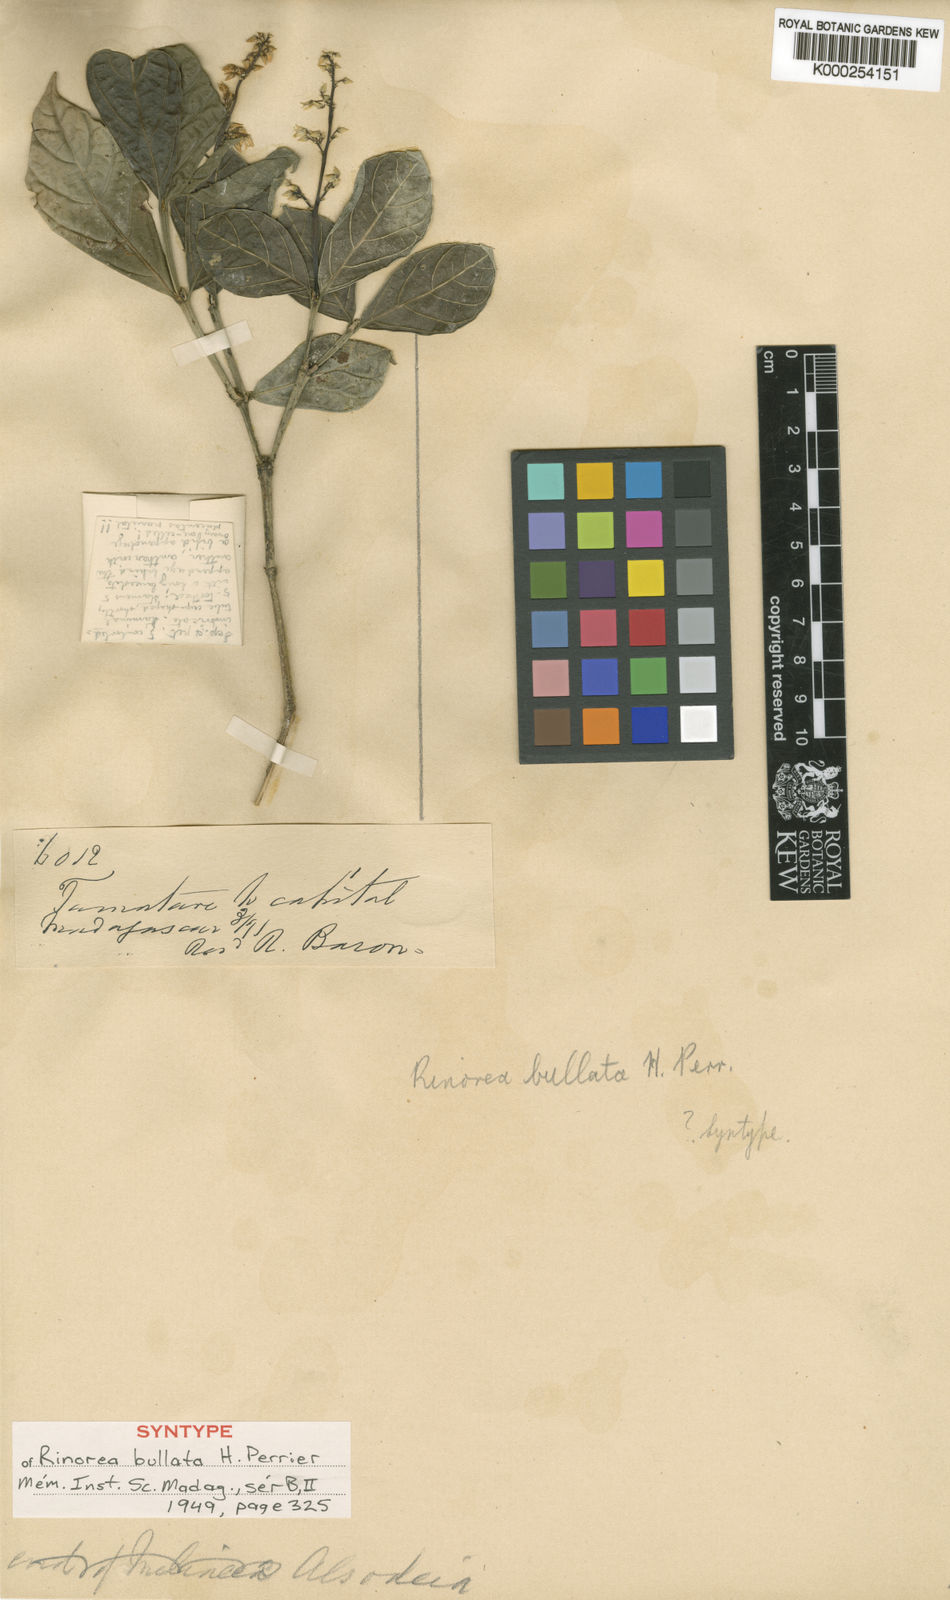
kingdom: Plantae
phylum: Tracheophyta
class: Magnoliopsida
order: Malpighiales
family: Violaceae
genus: Rinorea
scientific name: Rinorea bullata
